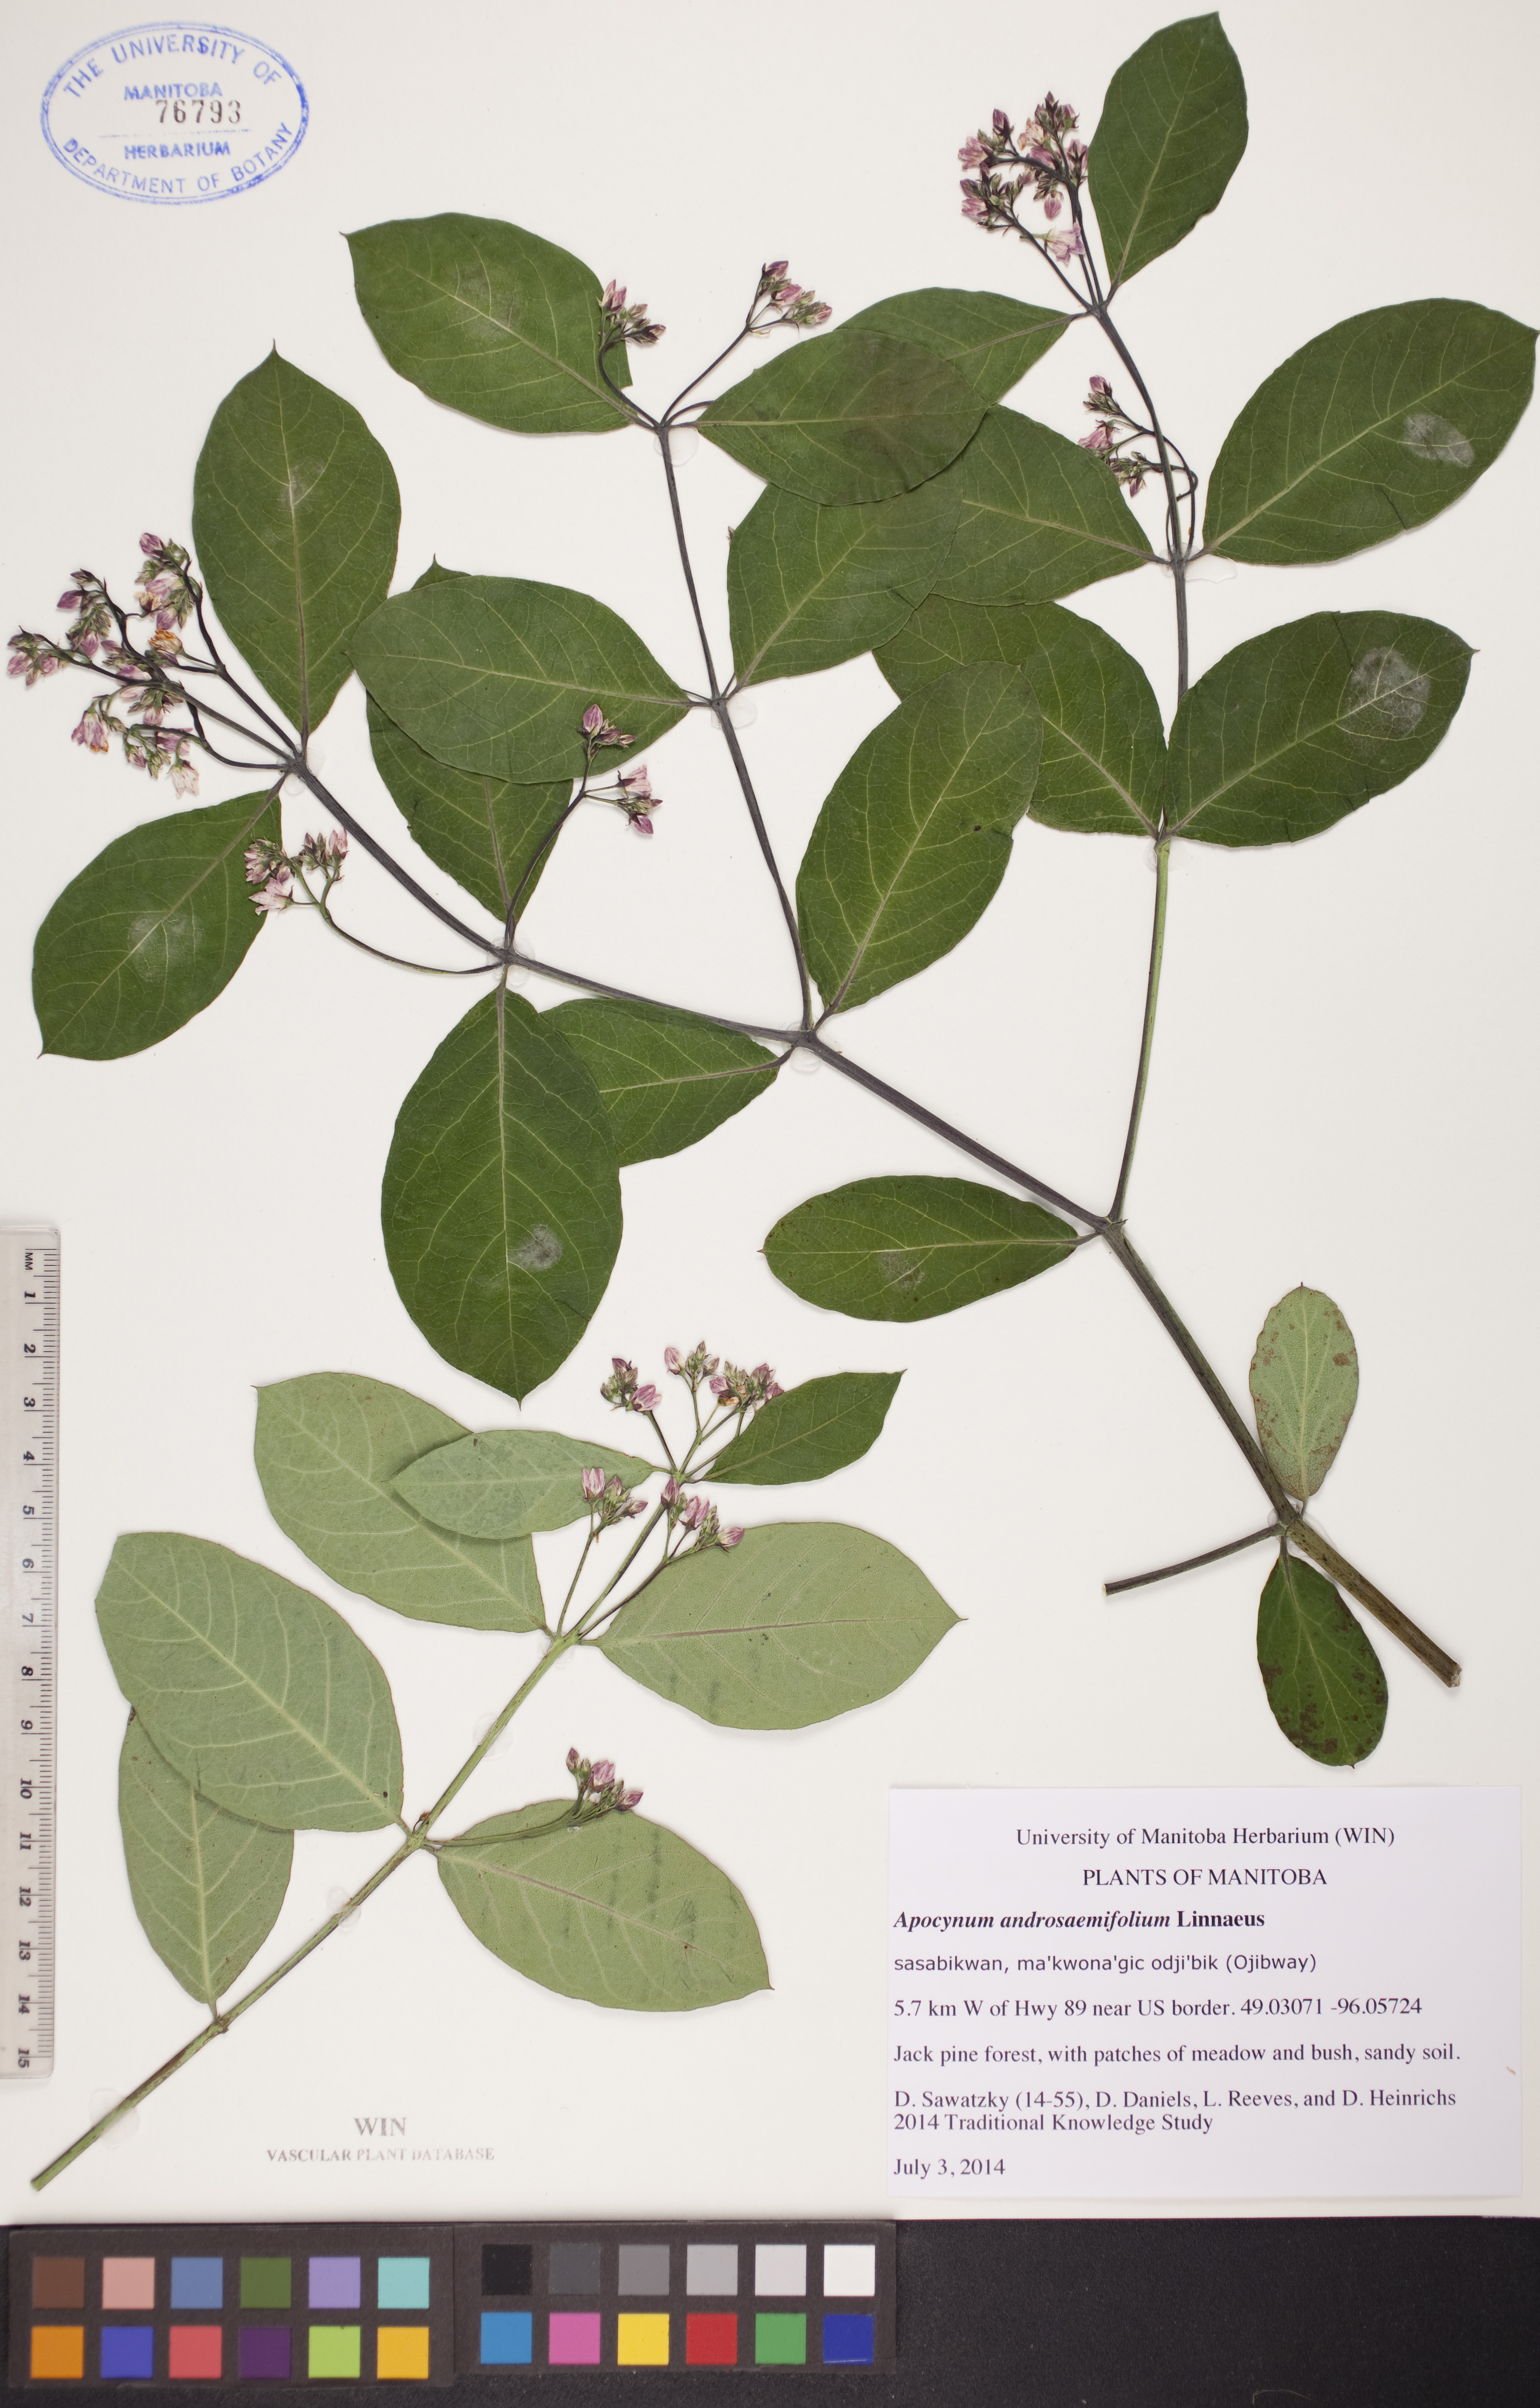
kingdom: Plantae
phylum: Tracheophyta
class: Magnoliopsida
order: Gentianales
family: Apocynaceae
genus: Apocynum
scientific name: Apocynum androsaemifolium
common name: Spreading dogbane
